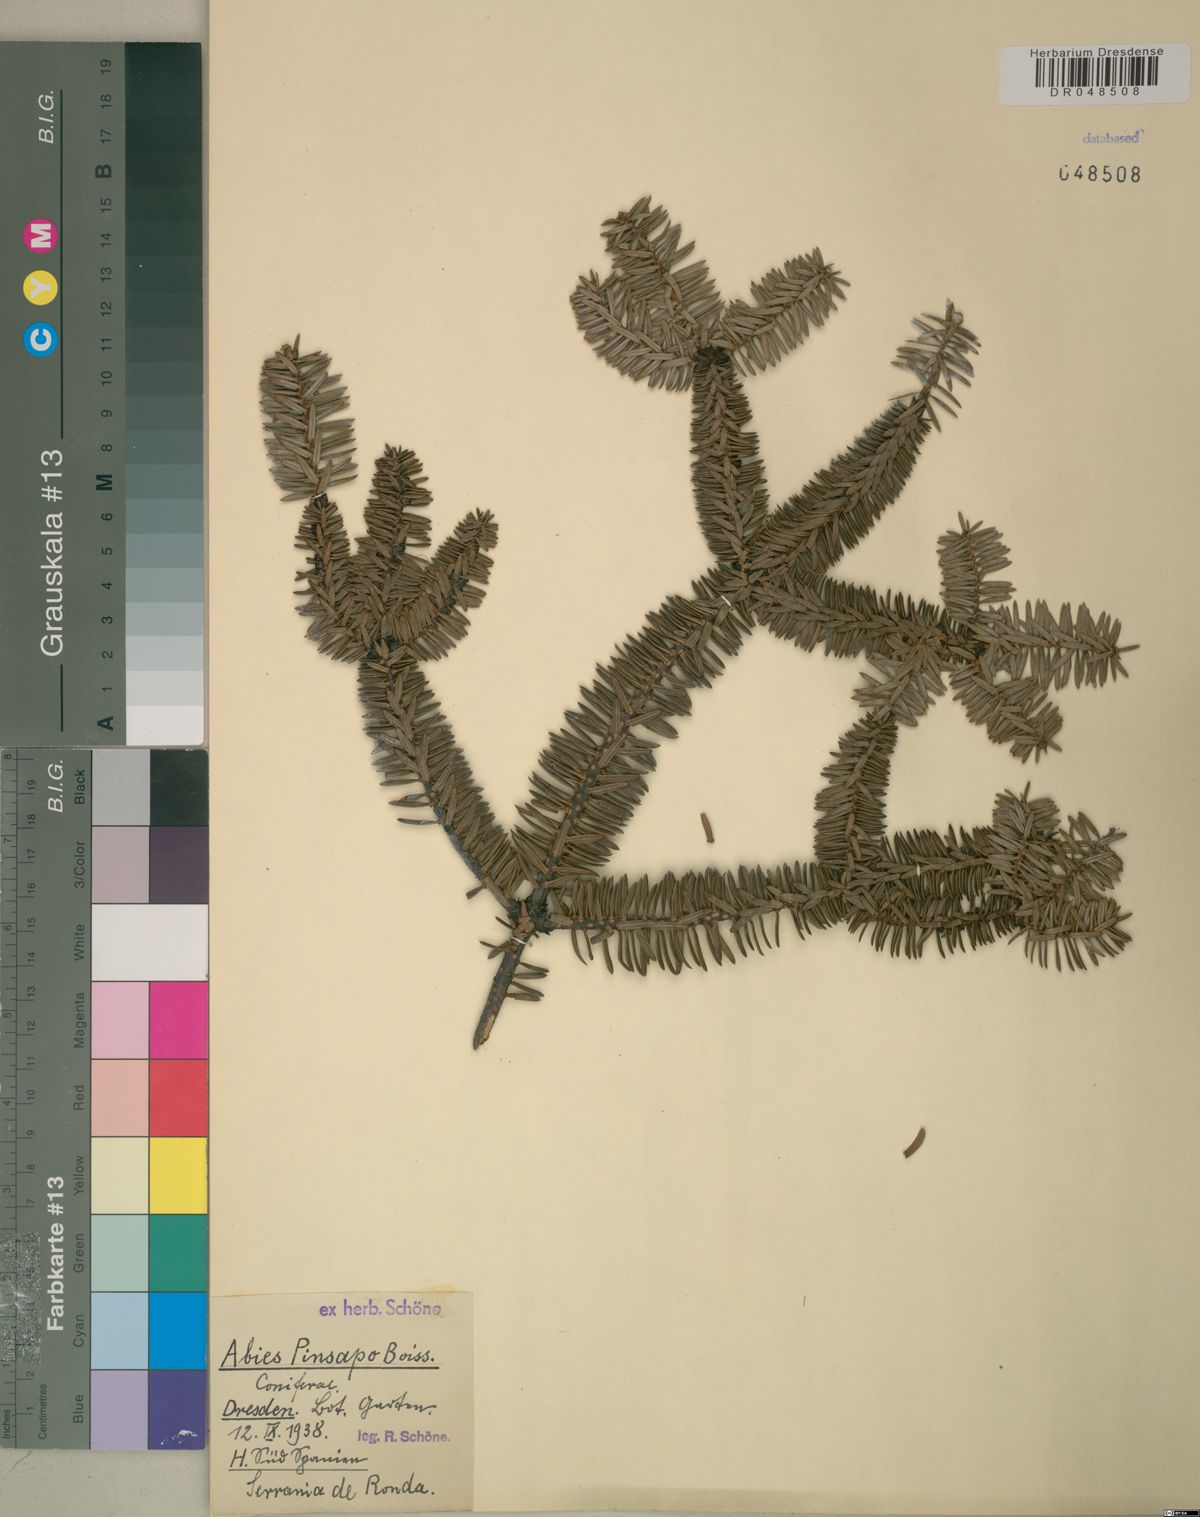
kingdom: Plantae
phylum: Tracheophyta
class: Pinopsida
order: Pinales
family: Pinaceae
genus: Abies
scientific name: Abies pinsapo
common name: Spanish fir
